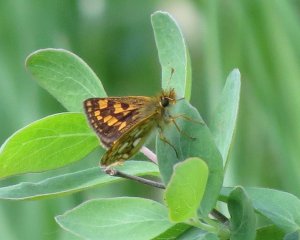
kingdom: Animalia
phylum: Arthropoda
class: Insecta
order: Lepidoptera
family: Hesperiidae
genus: Carterocephalus
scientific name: Carterocephalus palaemon
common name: Chequered Skipper
